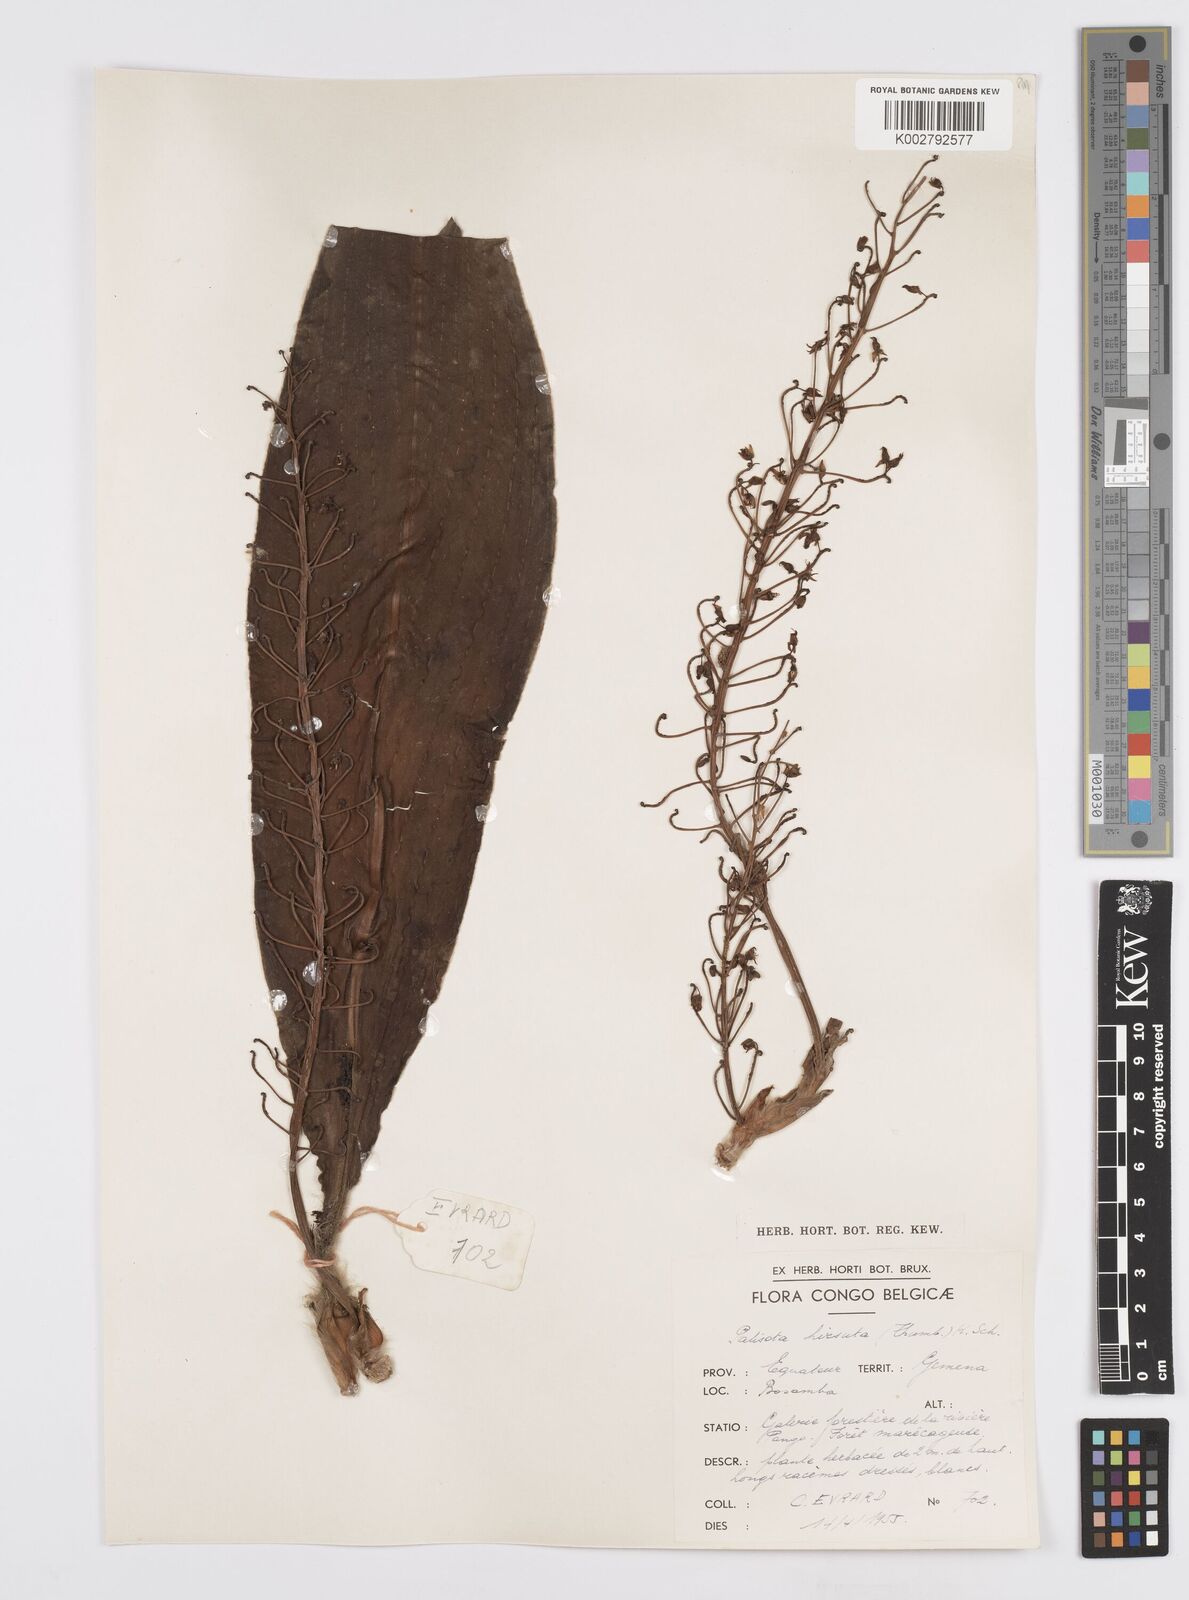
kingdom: Plantae
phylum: Tracheophyta
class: Liliopsida
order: Commelinales
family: Commelinaceae
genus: Palisota
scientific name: Palisota hirsuta
